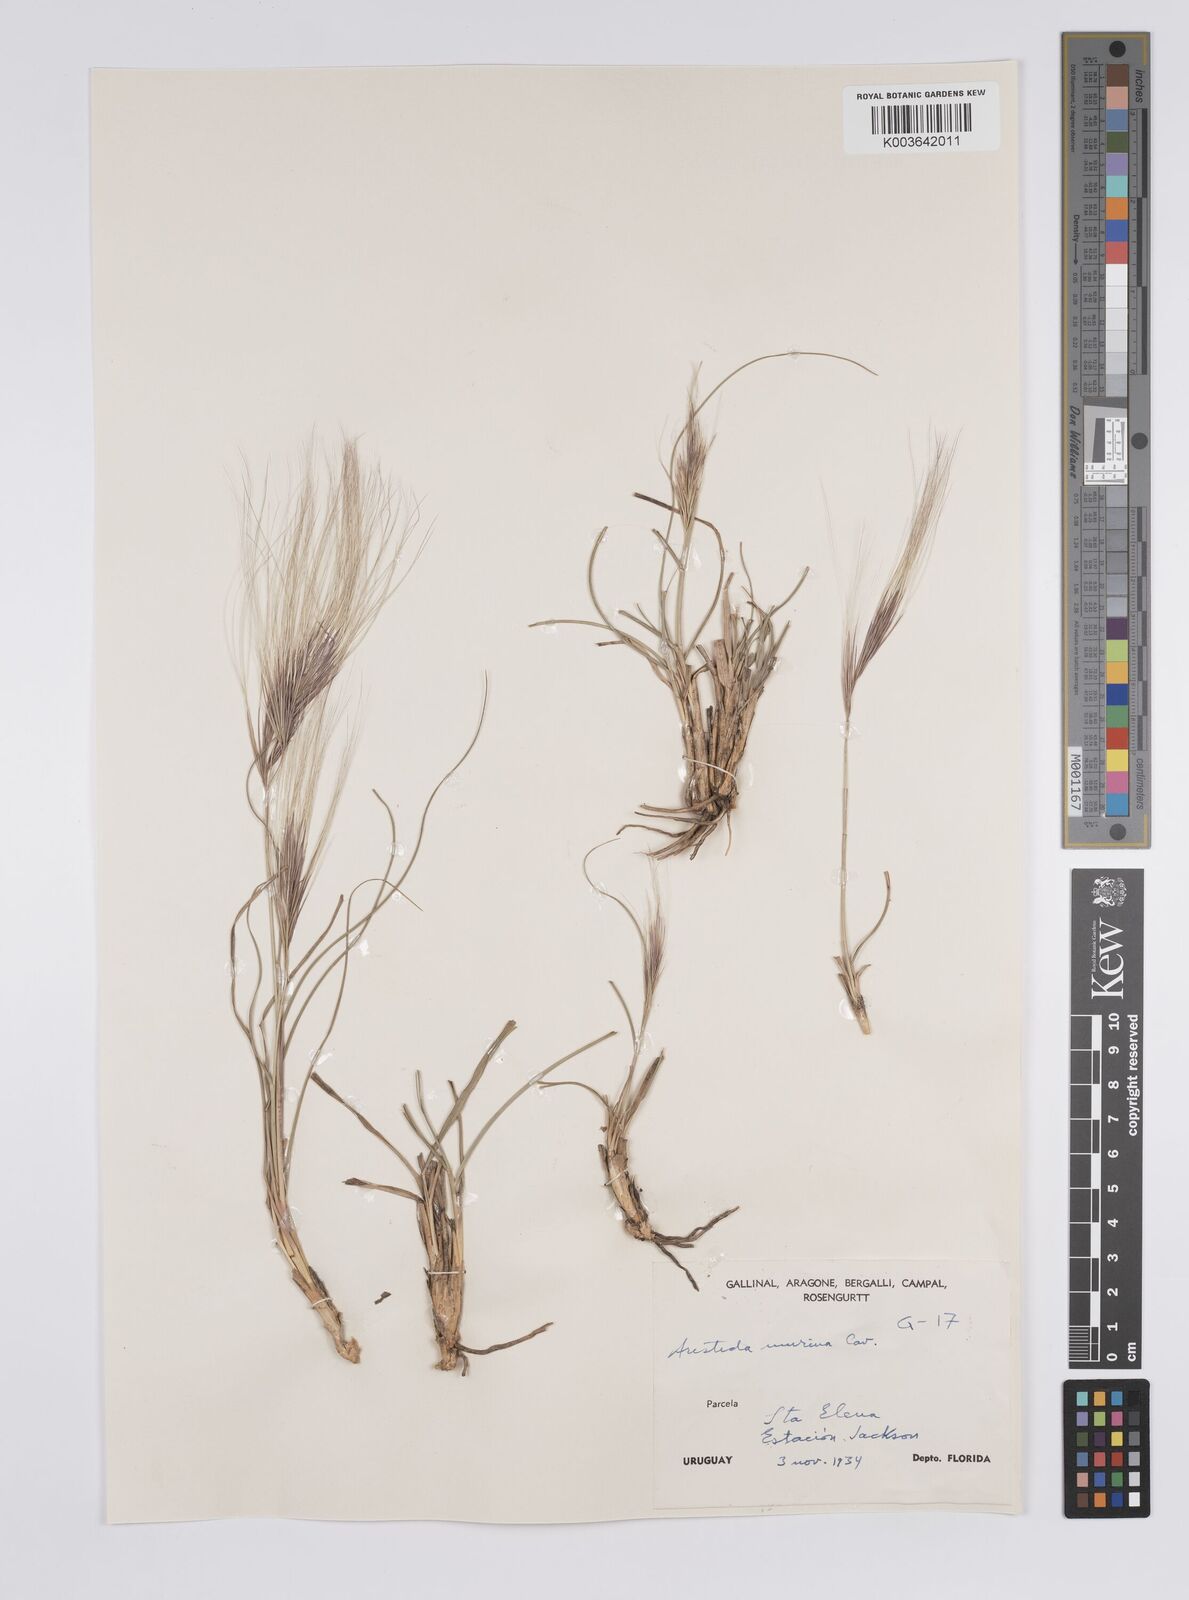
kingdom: Plantae
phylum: Tracheophyta
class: Liliopsida
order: Poales
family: Poaceae
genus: Aristida
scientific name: Aristida murina
